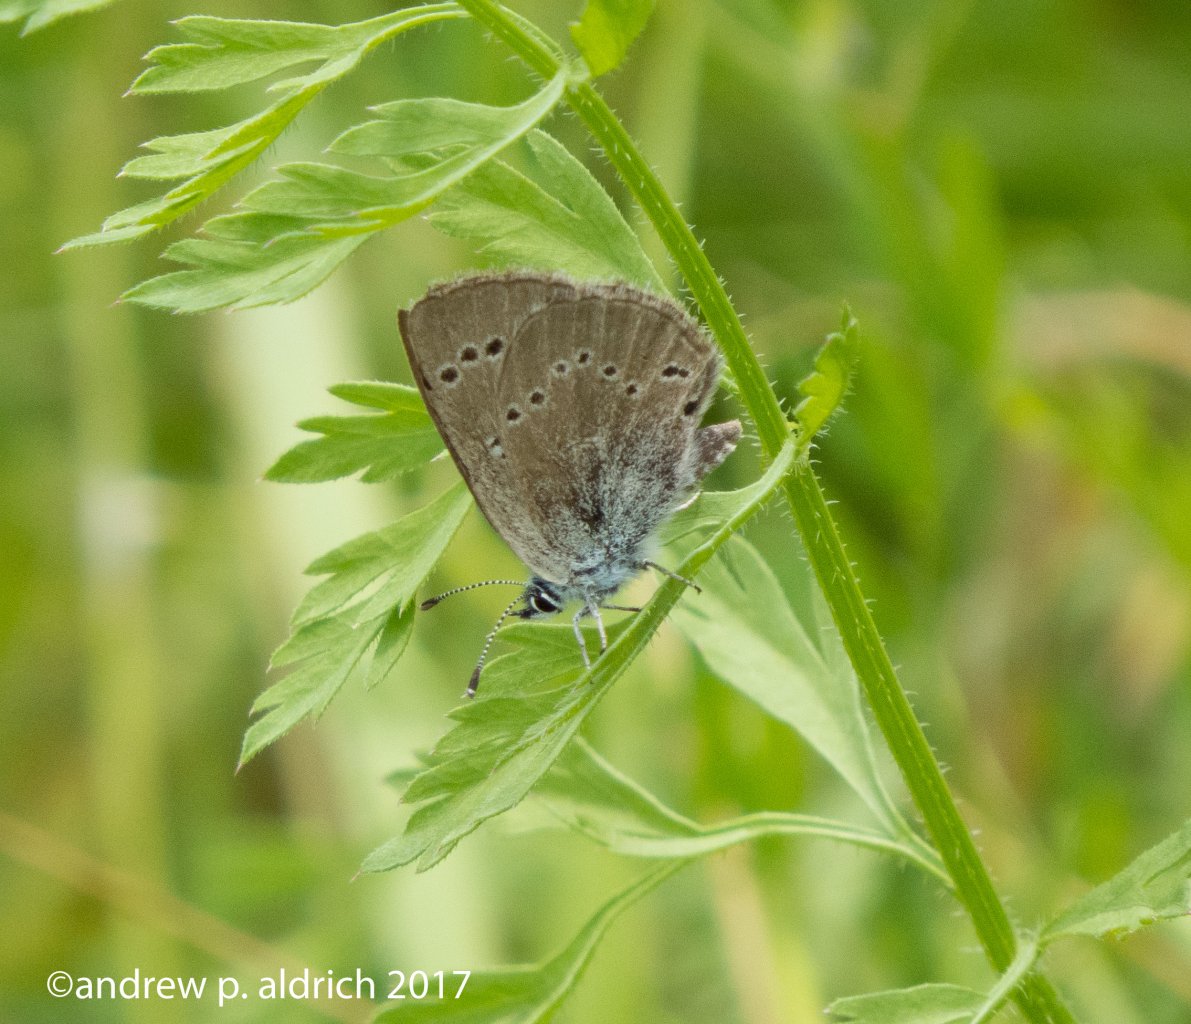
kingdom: Animalia
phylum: Arthropoda
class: Insecta
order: Lepidoptera
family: Lycaenidae
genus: Glaucopsyche
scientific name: Glaucopsyche lygdamus
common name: Silvery Blue
